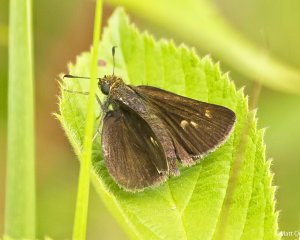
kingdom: Animalia
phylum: Arthropoda
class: Insecta
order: Lepidoptera
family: Hesperiidae
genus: Euphyes
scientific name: Euphyes vestris
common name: Dun Skipper
